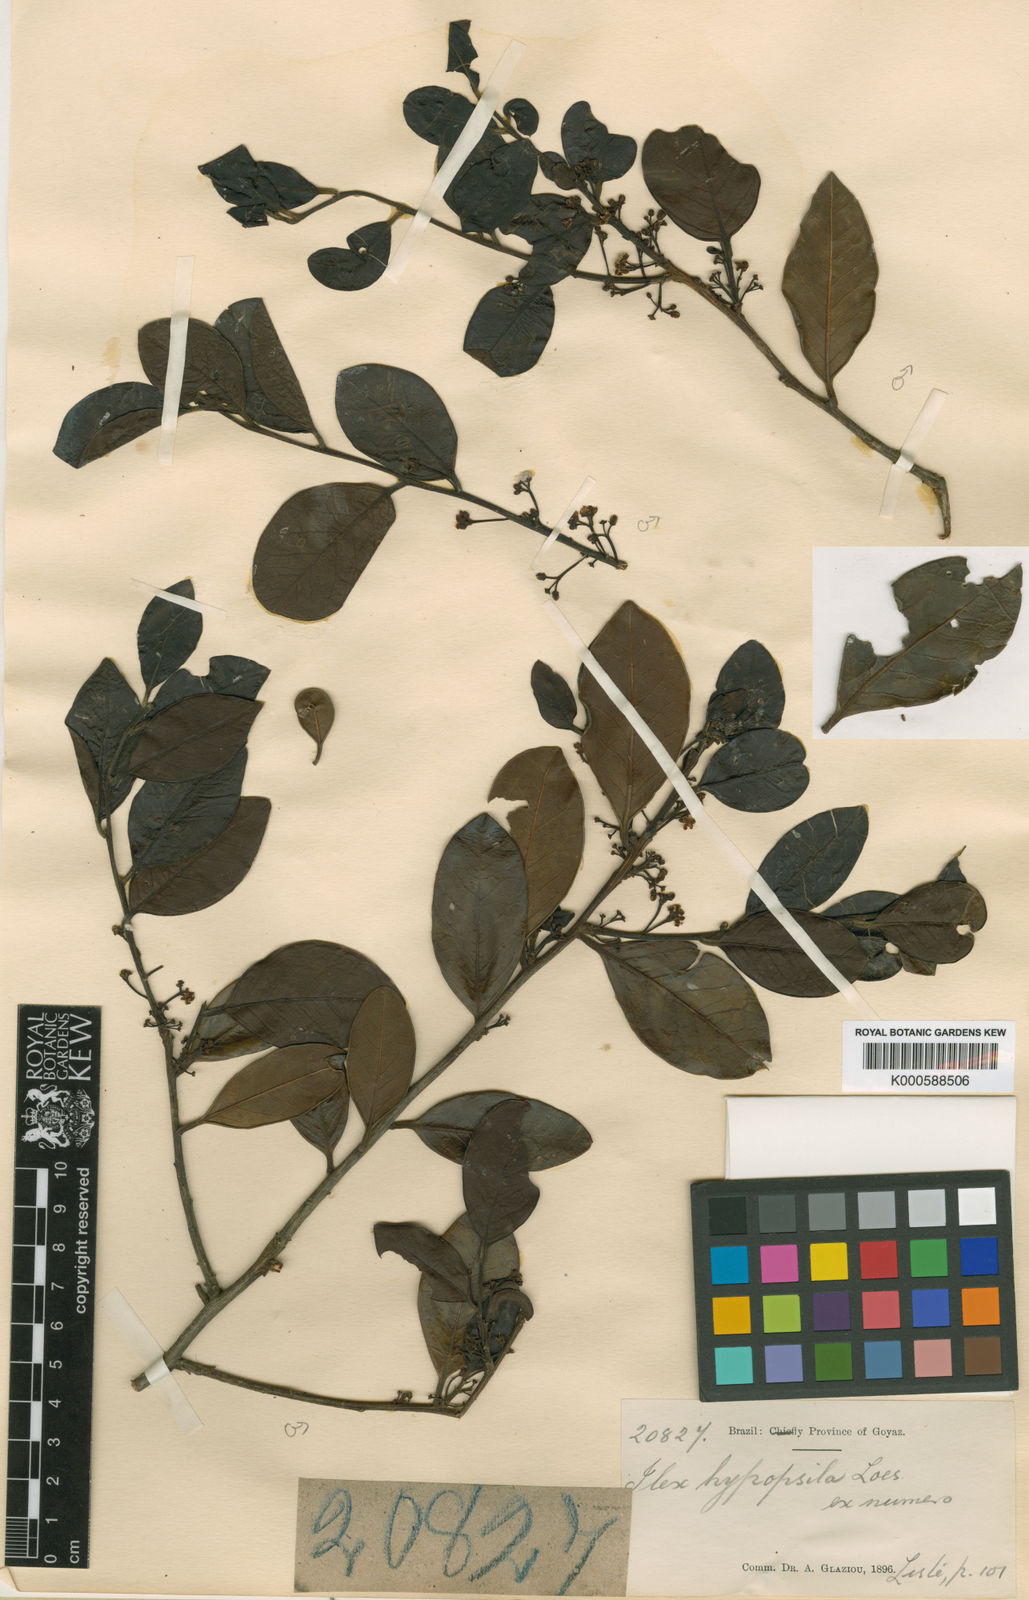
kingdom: Plantae
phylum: Tracheophyta
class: Magnoliopsida
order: Aquifoliales
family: Aquifoliaceae
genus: Ilex
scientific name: Ilex hypopsile
